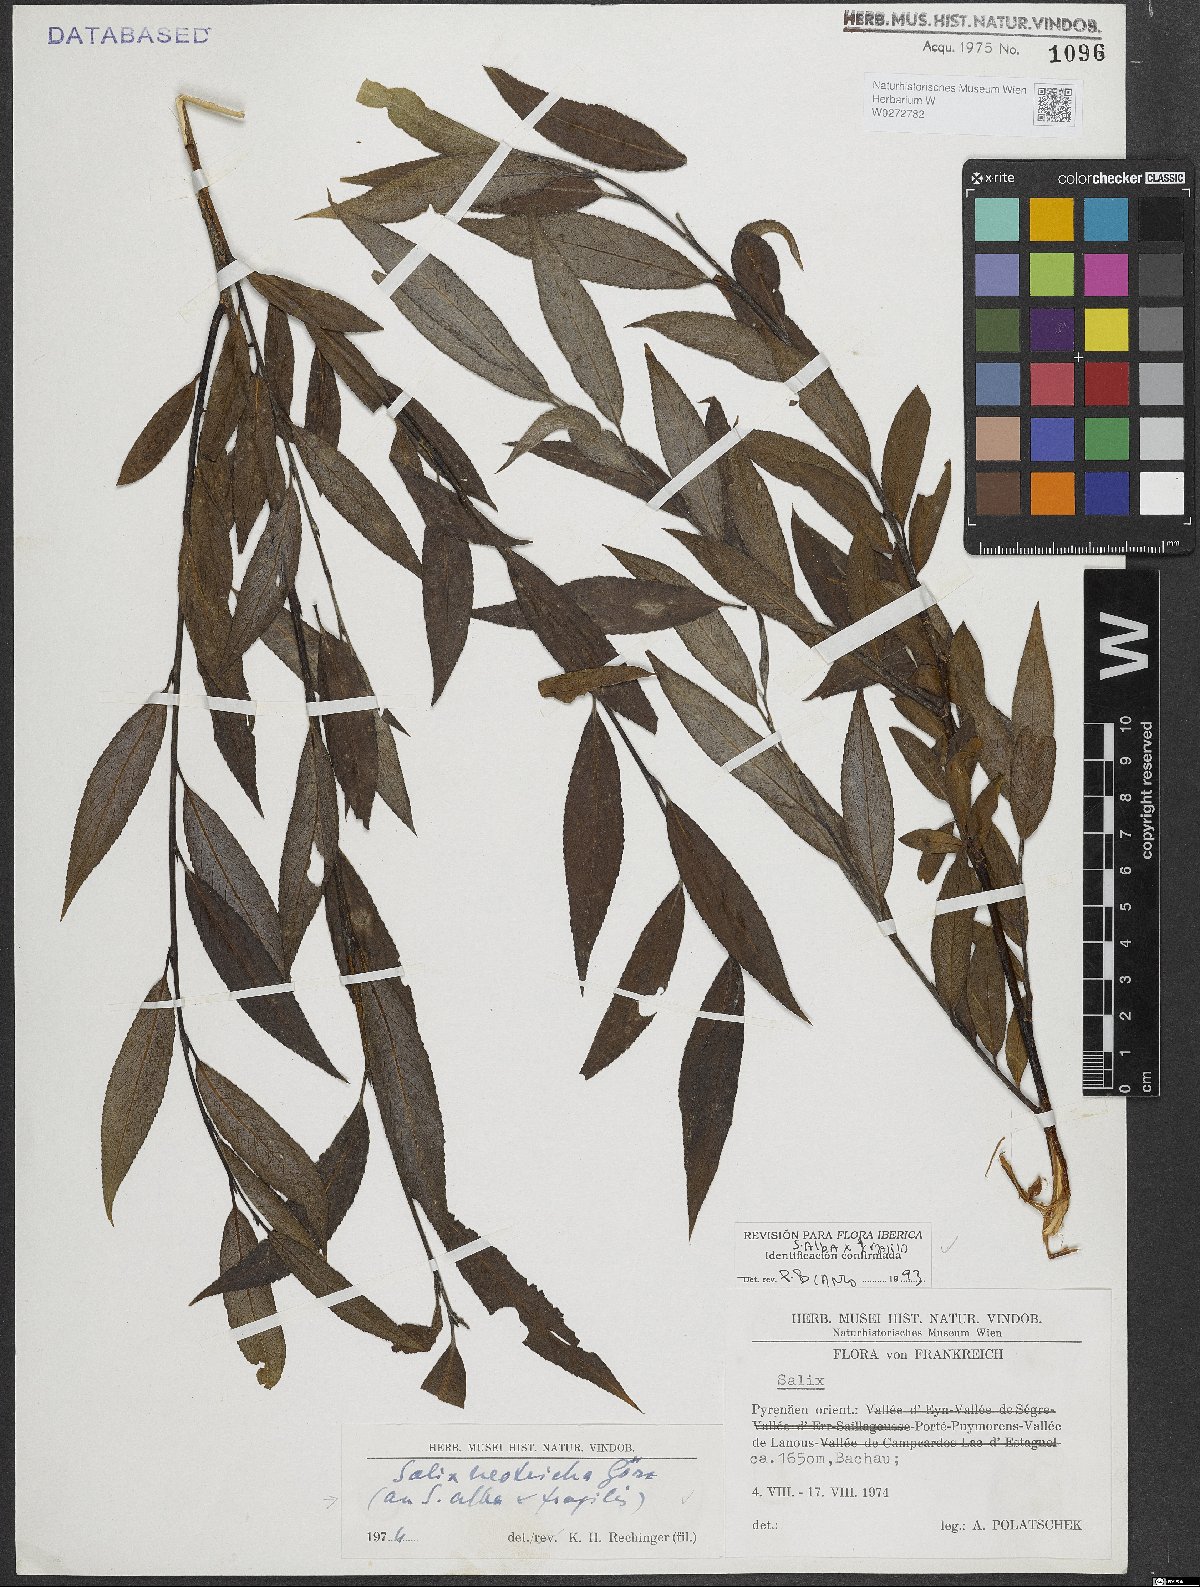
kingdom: Plantae
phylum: Tracheophyta
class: Magnoliopsida
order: Malpighiales
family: Salicaceae
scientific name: Salicaceae
